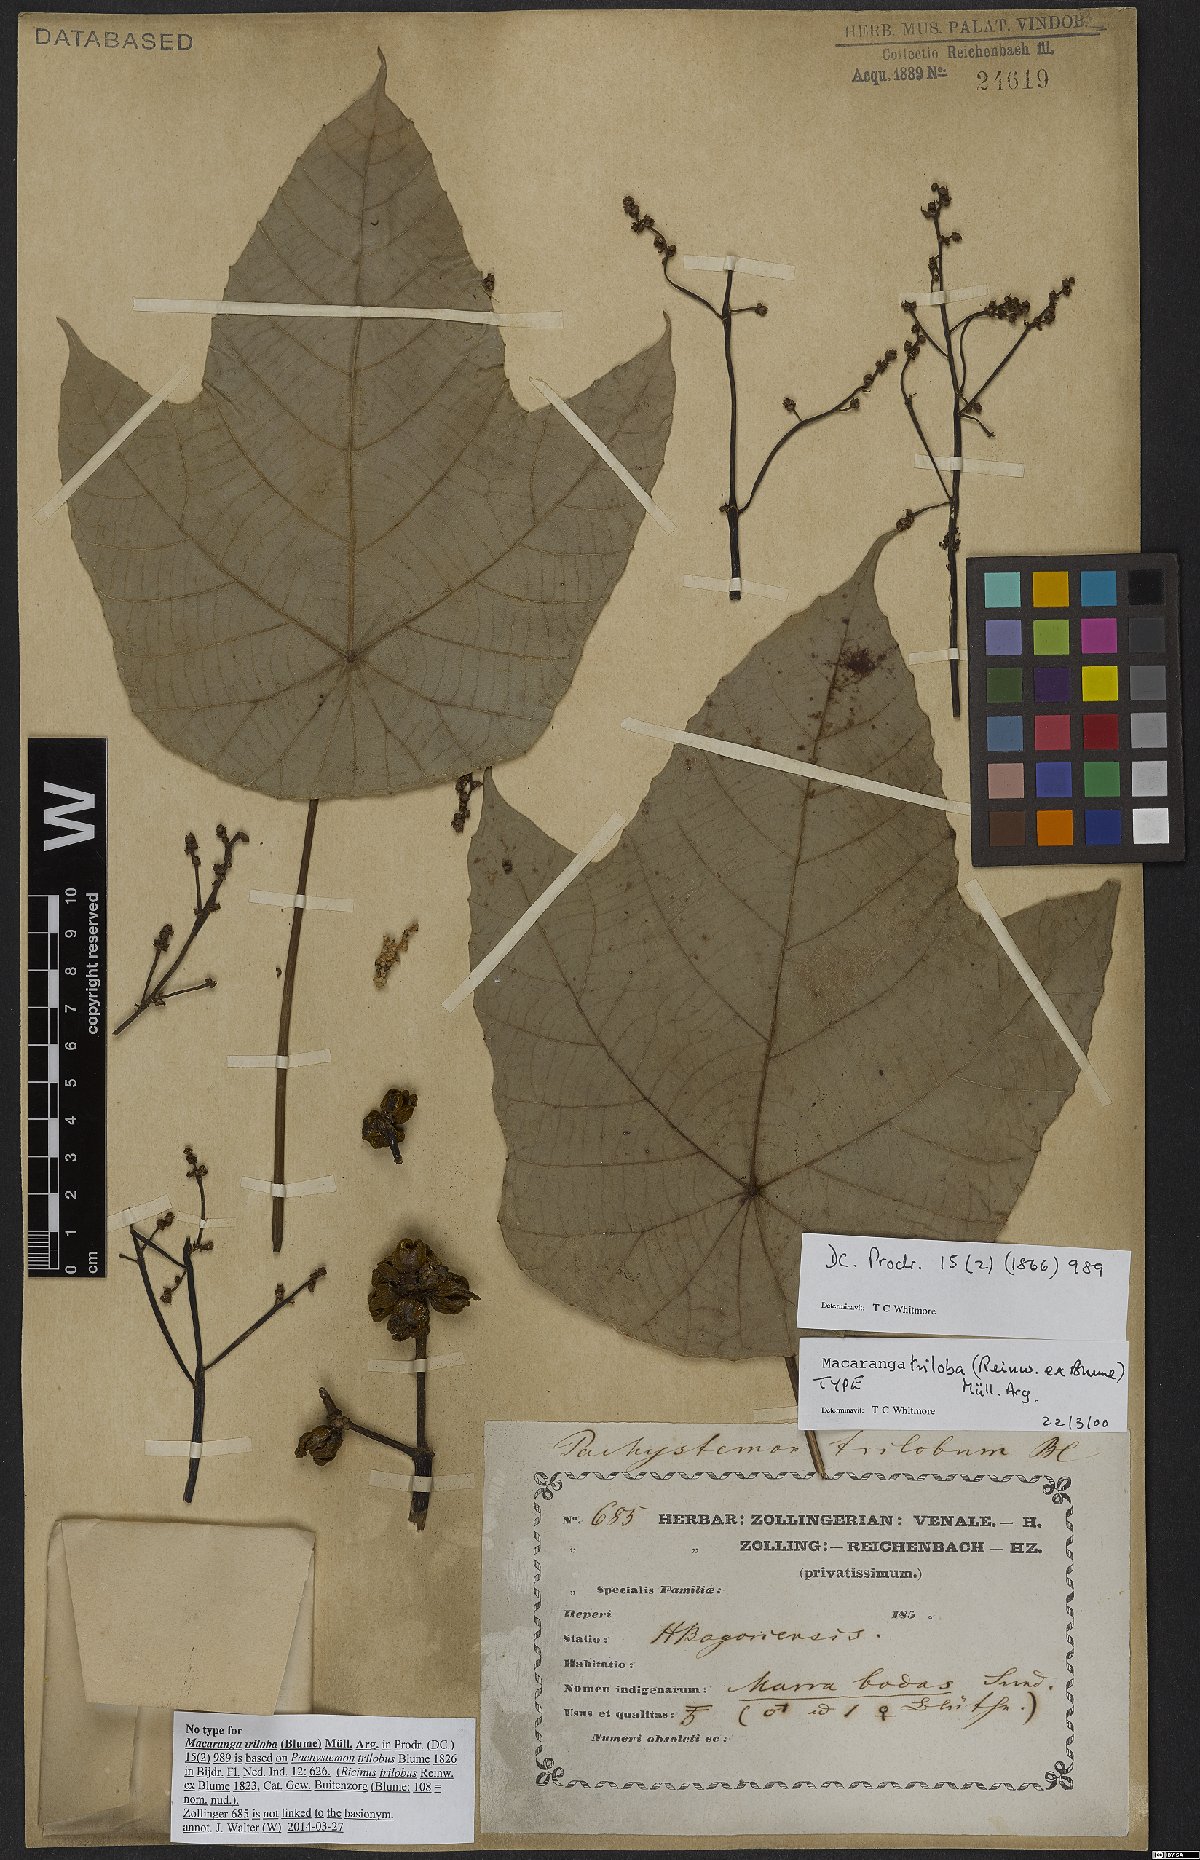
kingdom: Plantae
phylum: Tracheophyta
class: Magnoliopsida
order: Malpighiales
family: Euphorbiaceae
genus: Macaranga
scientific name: Macaranga triloba
